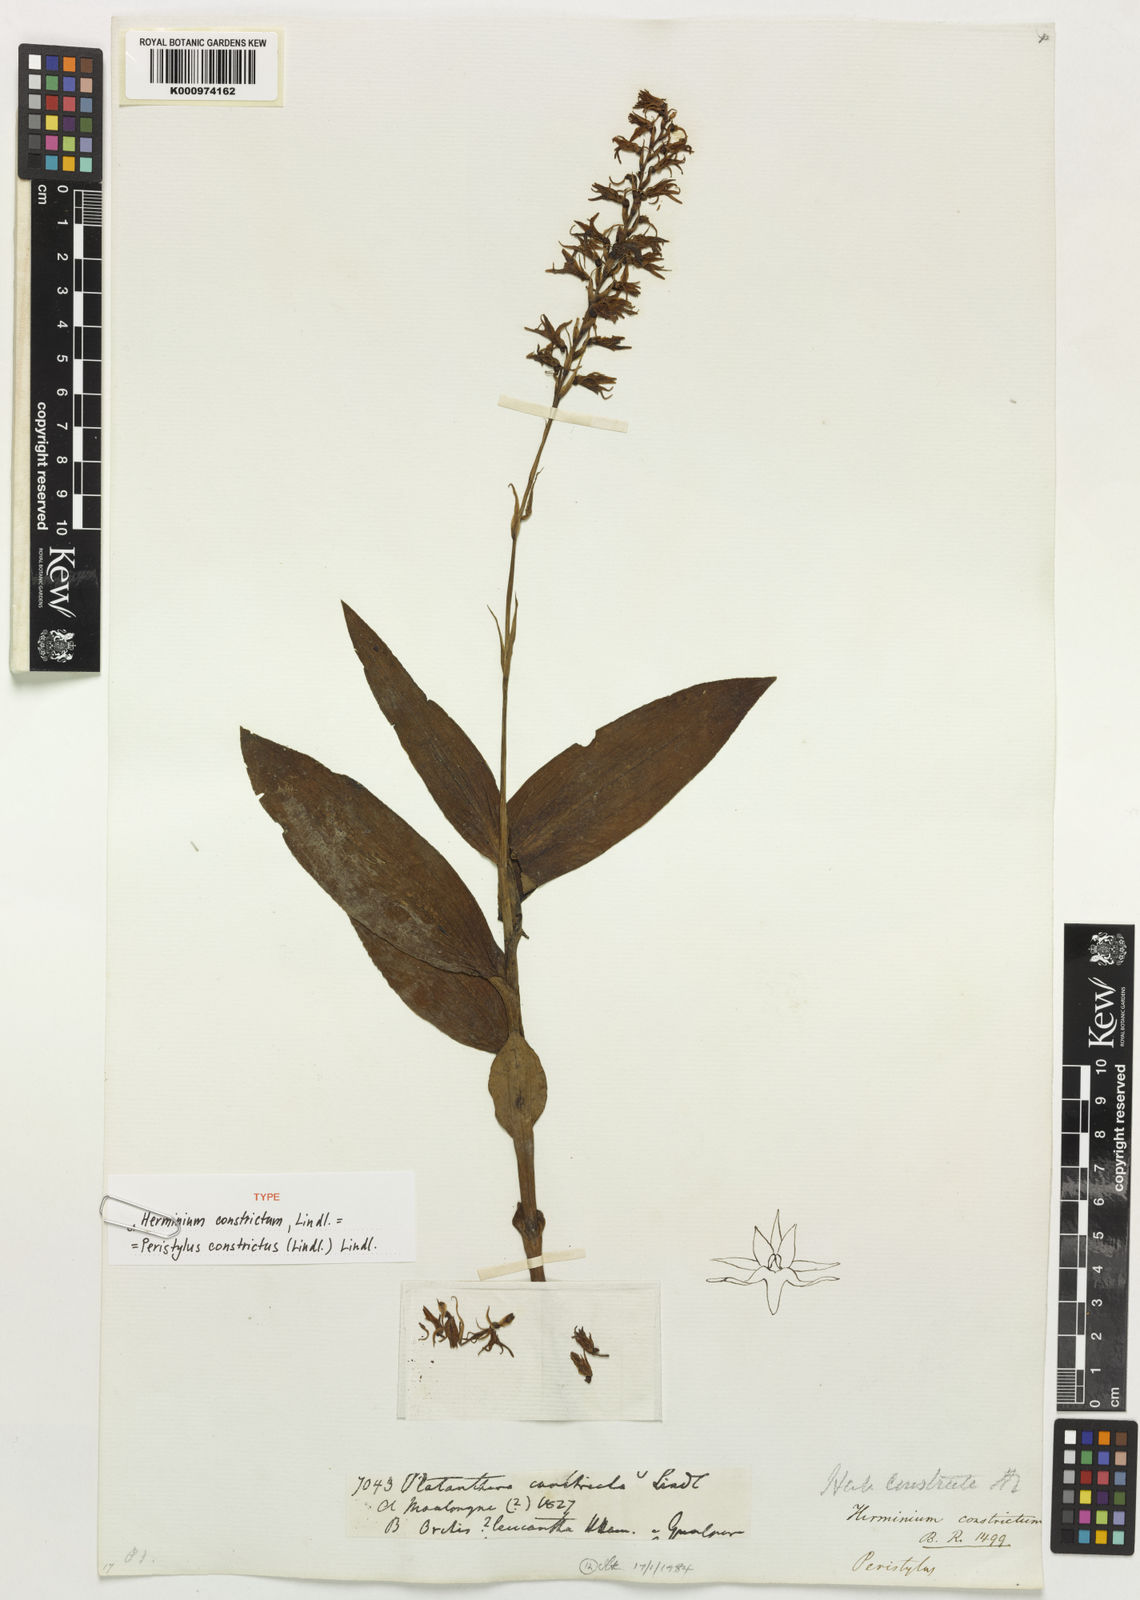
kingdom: Plantae
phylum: Tracheophyta
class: Liliopsida
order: Asparagales
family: Orchidaceae
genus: Peristylus
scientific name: Peristylus constrictus
